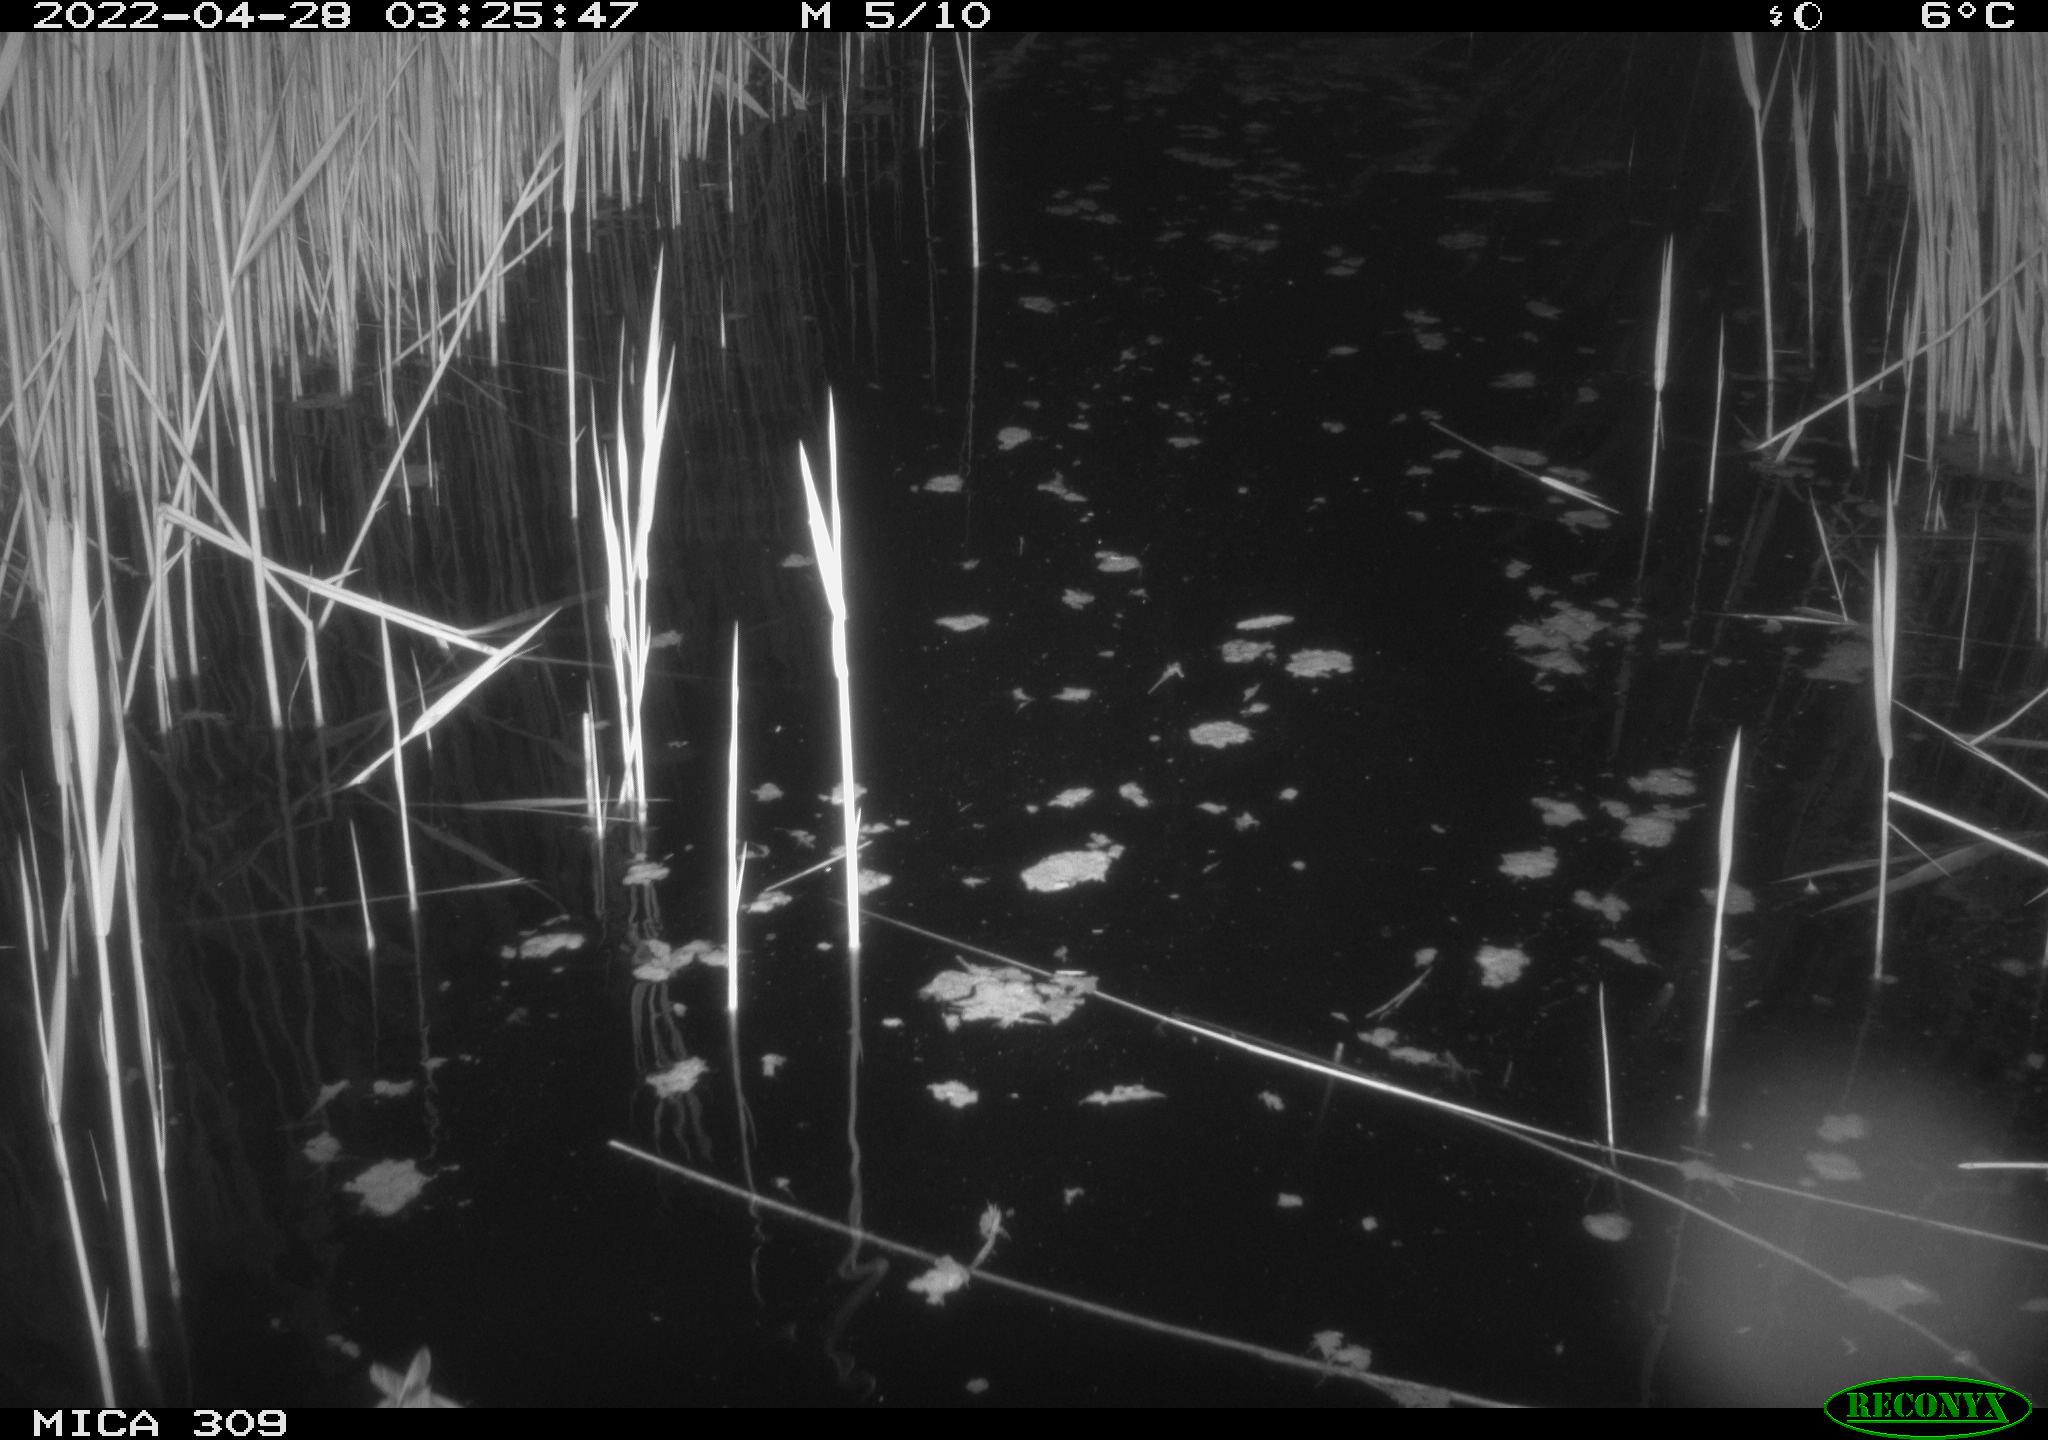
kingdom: Animalia
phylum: Chordata
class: Aves
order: Gruiformes
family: Rallidae
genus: Gallinula
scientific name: Gallinula chloropus
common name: Common moorhen
